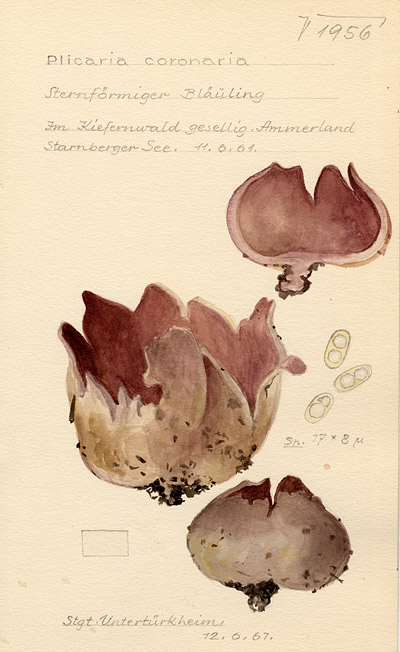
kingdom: Fungi
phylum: Ascomycota
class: Pezizomycetes
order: Pezizales
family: Pezizaceae
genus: Sarcosphaera
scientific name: Sarcosphaera coronaria
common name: Violet crowncup
